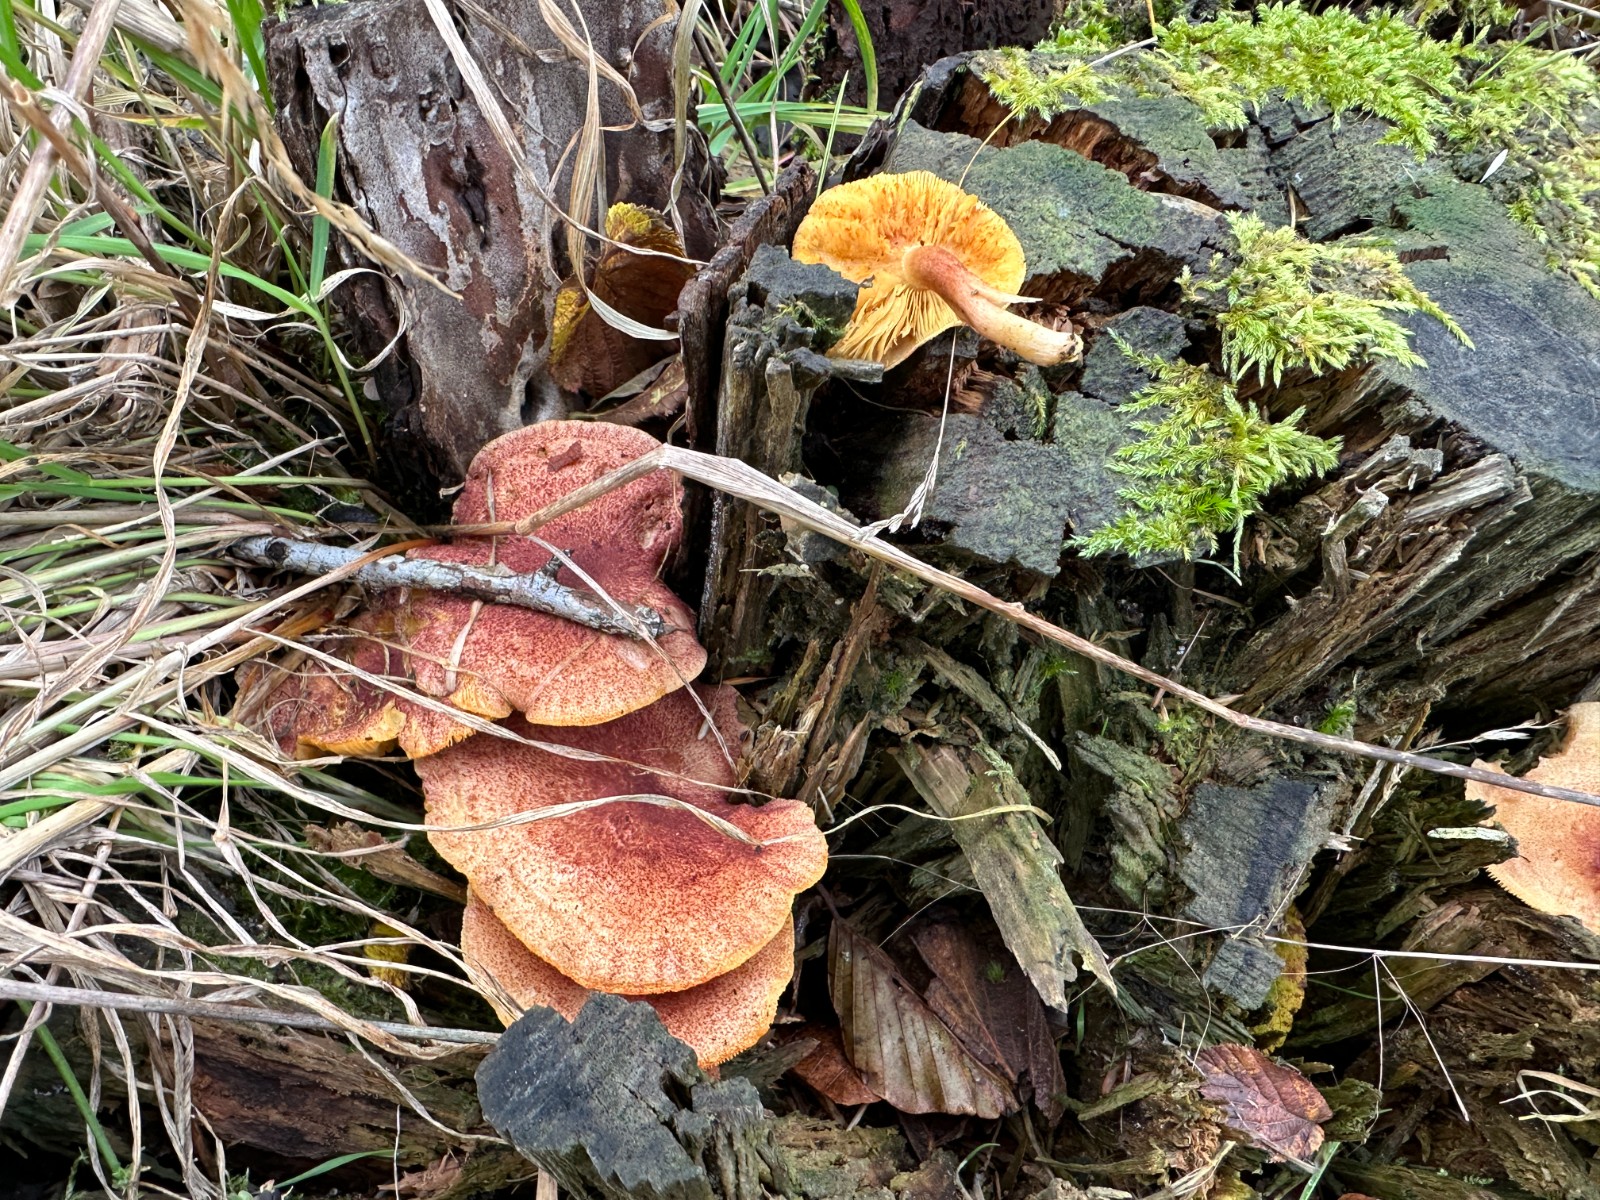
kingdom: Fungi
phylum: Basidiomycota
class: Agaricomycetes
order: Agaricales
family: Tricholomataceae
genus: Tricholomopsis
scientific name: Tricholomopsis rutilans
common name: purpur-væbnerhat
